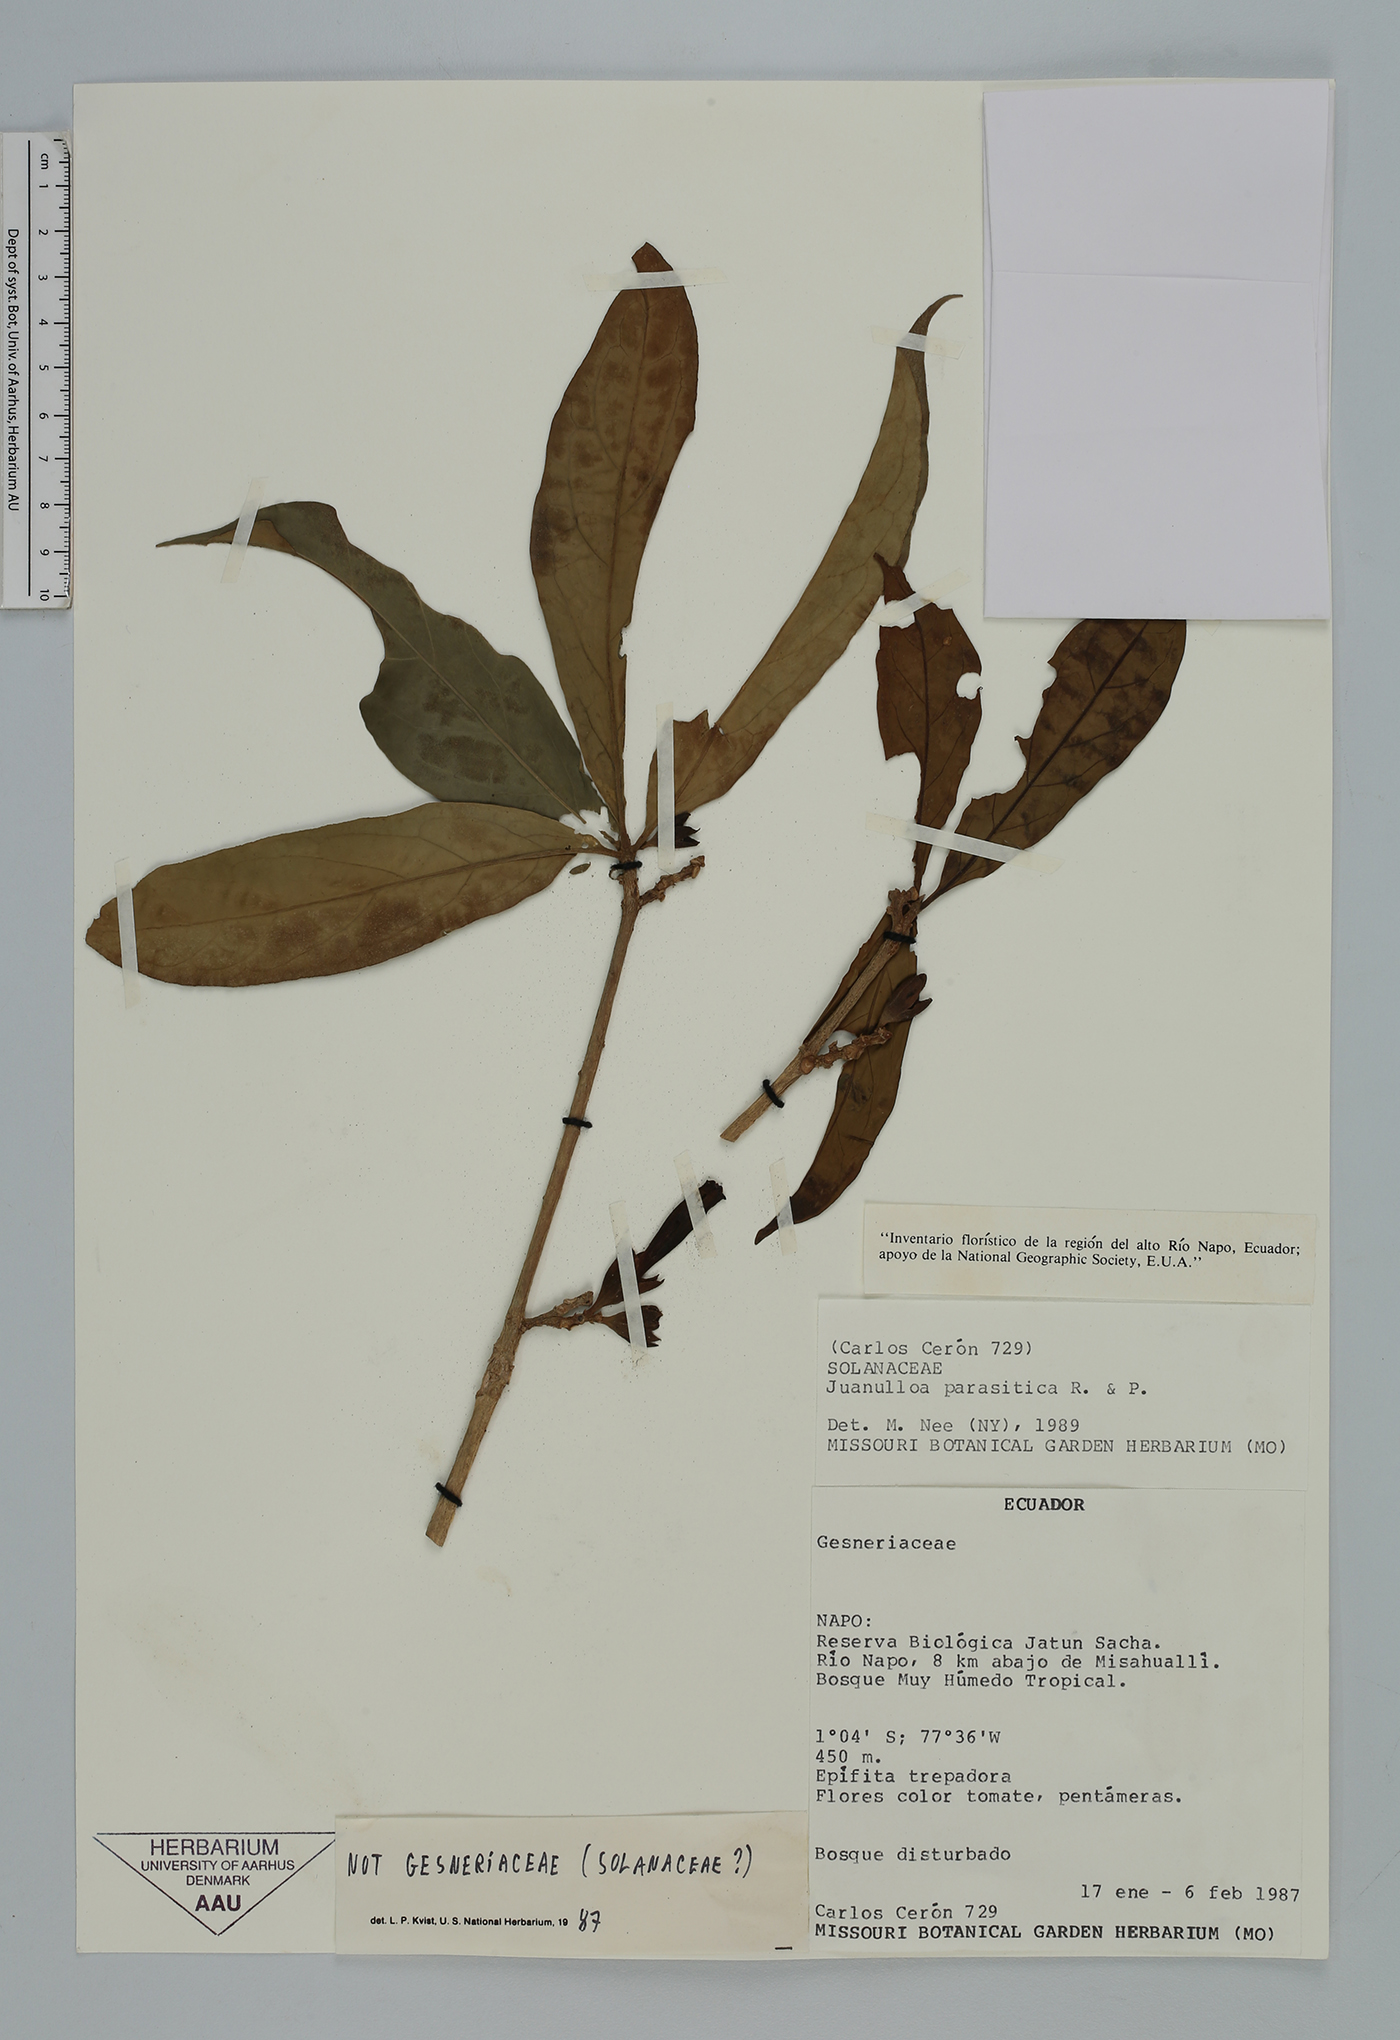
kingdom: Plantae
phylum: Tracheophyta
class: Magnoliopsida
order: Solanales
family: Solanaceae
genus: Hawkesiophyton
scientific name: Hawkesiophyton ochraceum
